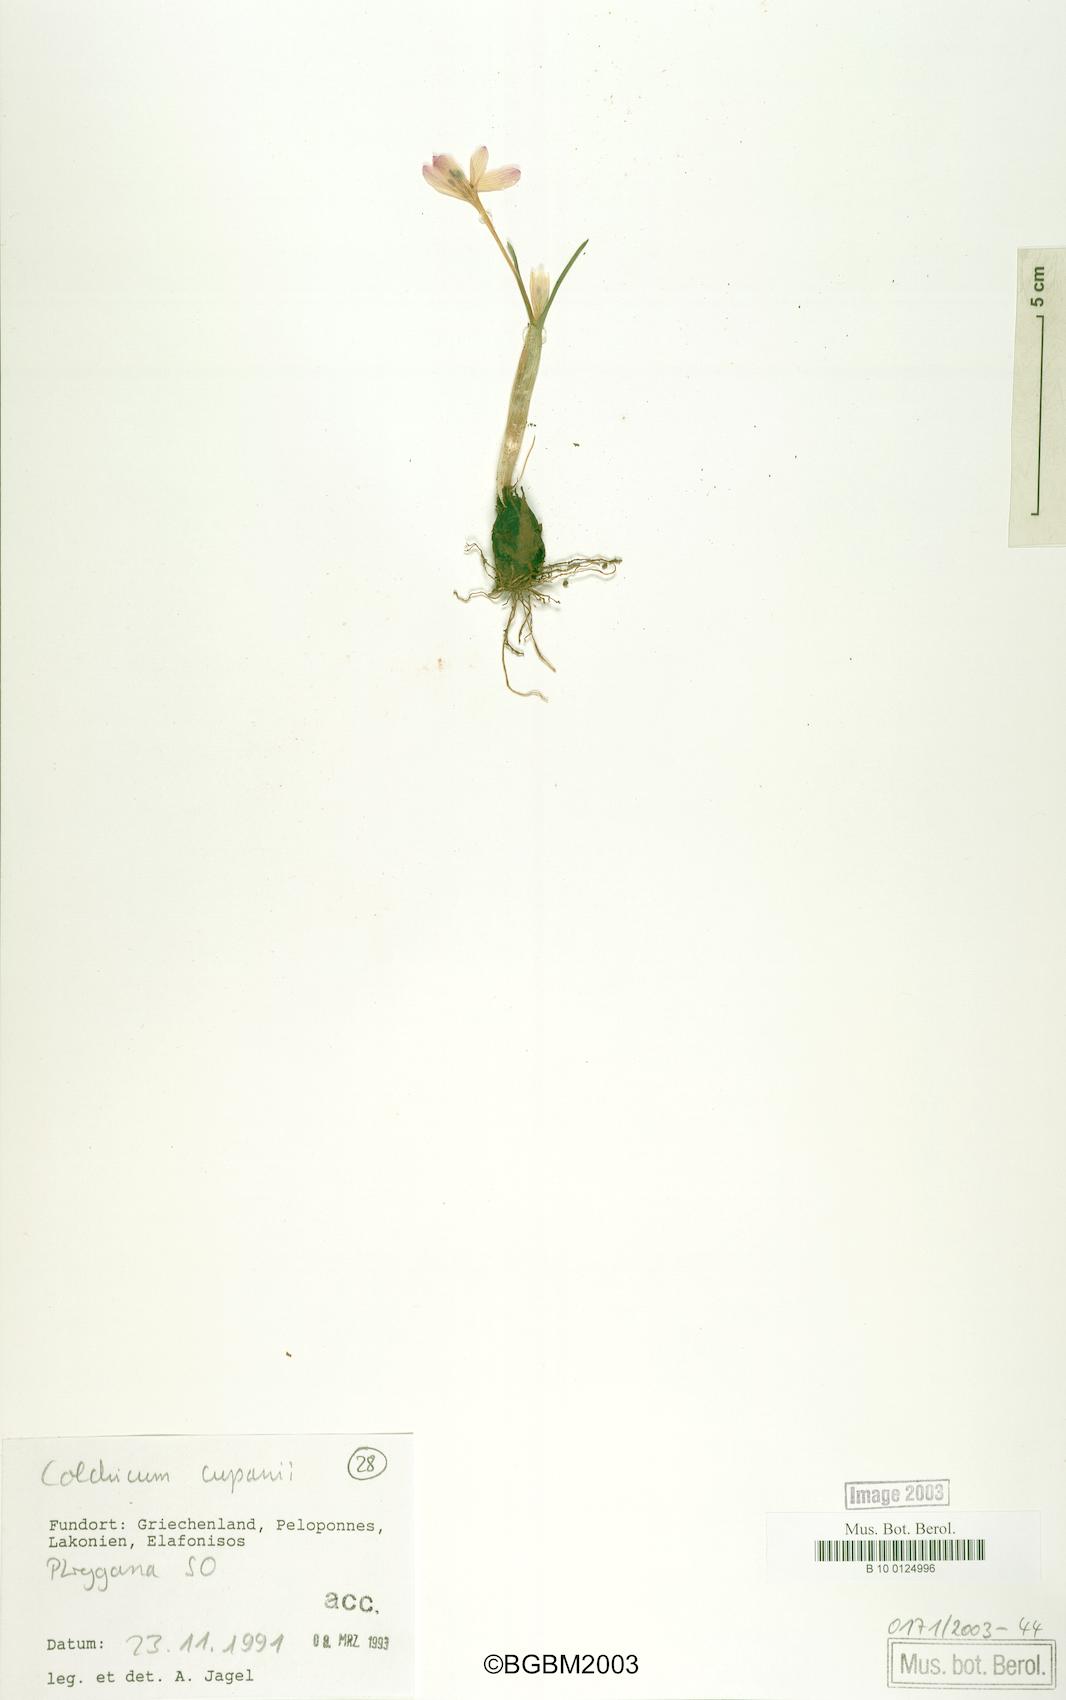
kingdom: Plantae
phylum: Tracheophyta
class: Liliopsida
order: Liliales
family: Colchicaceae
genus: Colchicum
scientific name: Colchicum cupanii
